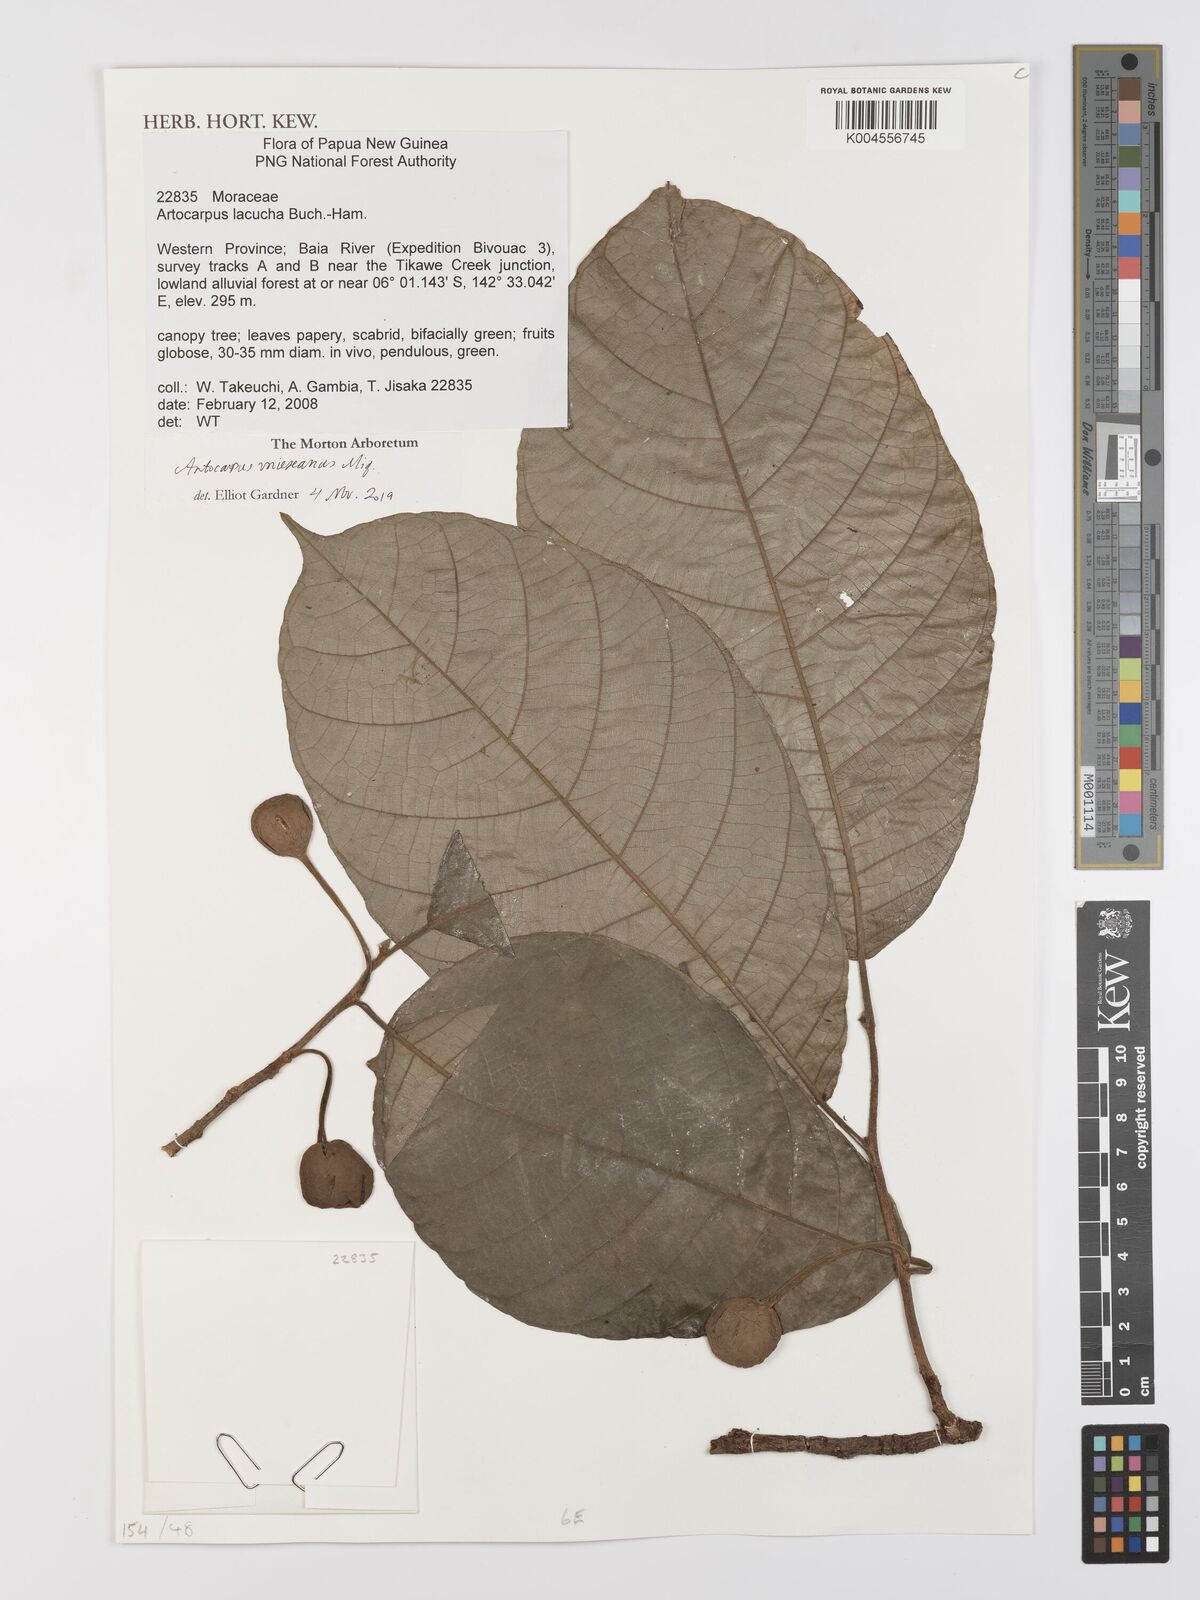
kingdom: Plantae
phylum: Tracheophyta
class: Magnoliopsida
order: Rosales
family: Moraceae
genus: Artocarpus
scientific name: Artocarpus vrieseanus
